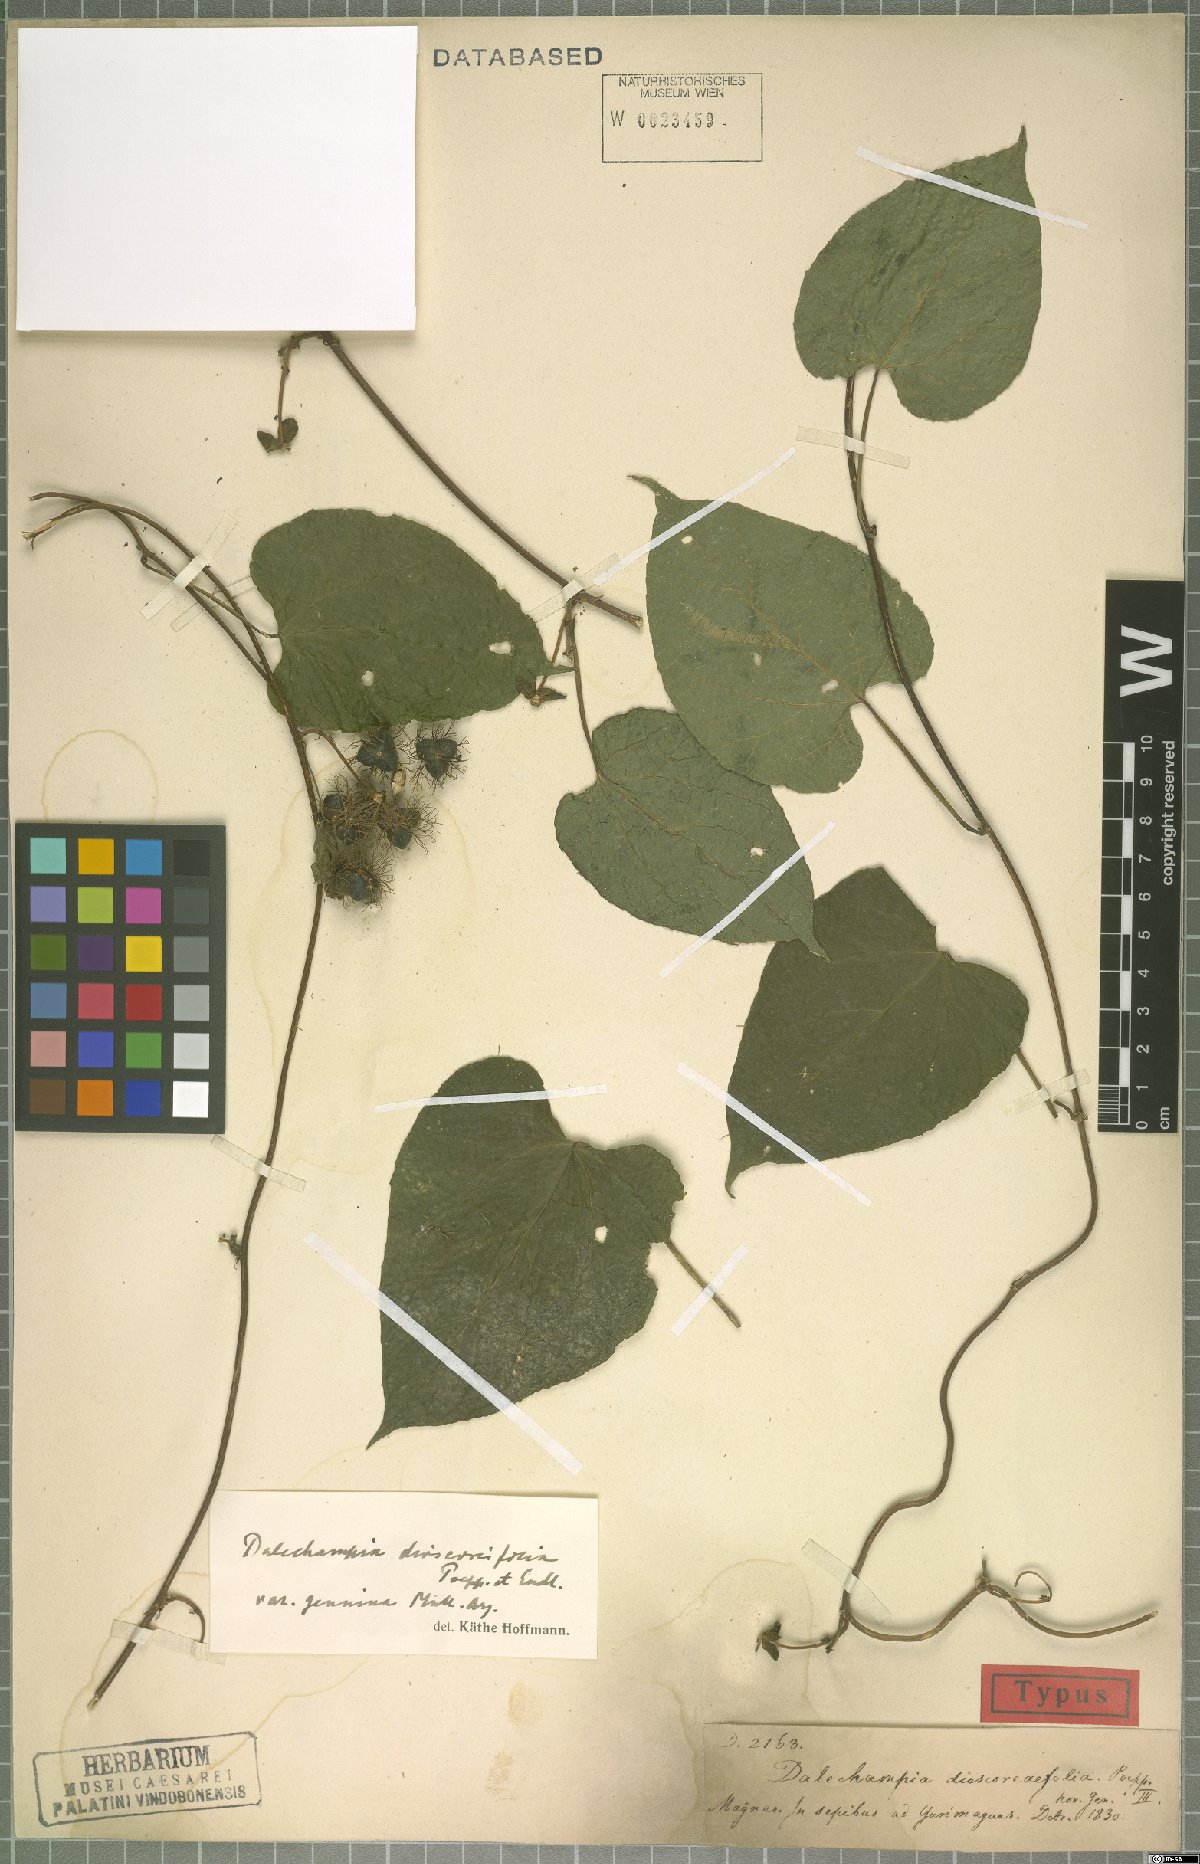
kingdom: Plantae
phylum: Tracheophyta
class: Magnoliopsida
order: Malpighiales
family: Euphorbiaceae
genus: Dalechampia
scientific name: Dalechampia dioscoreifolia
